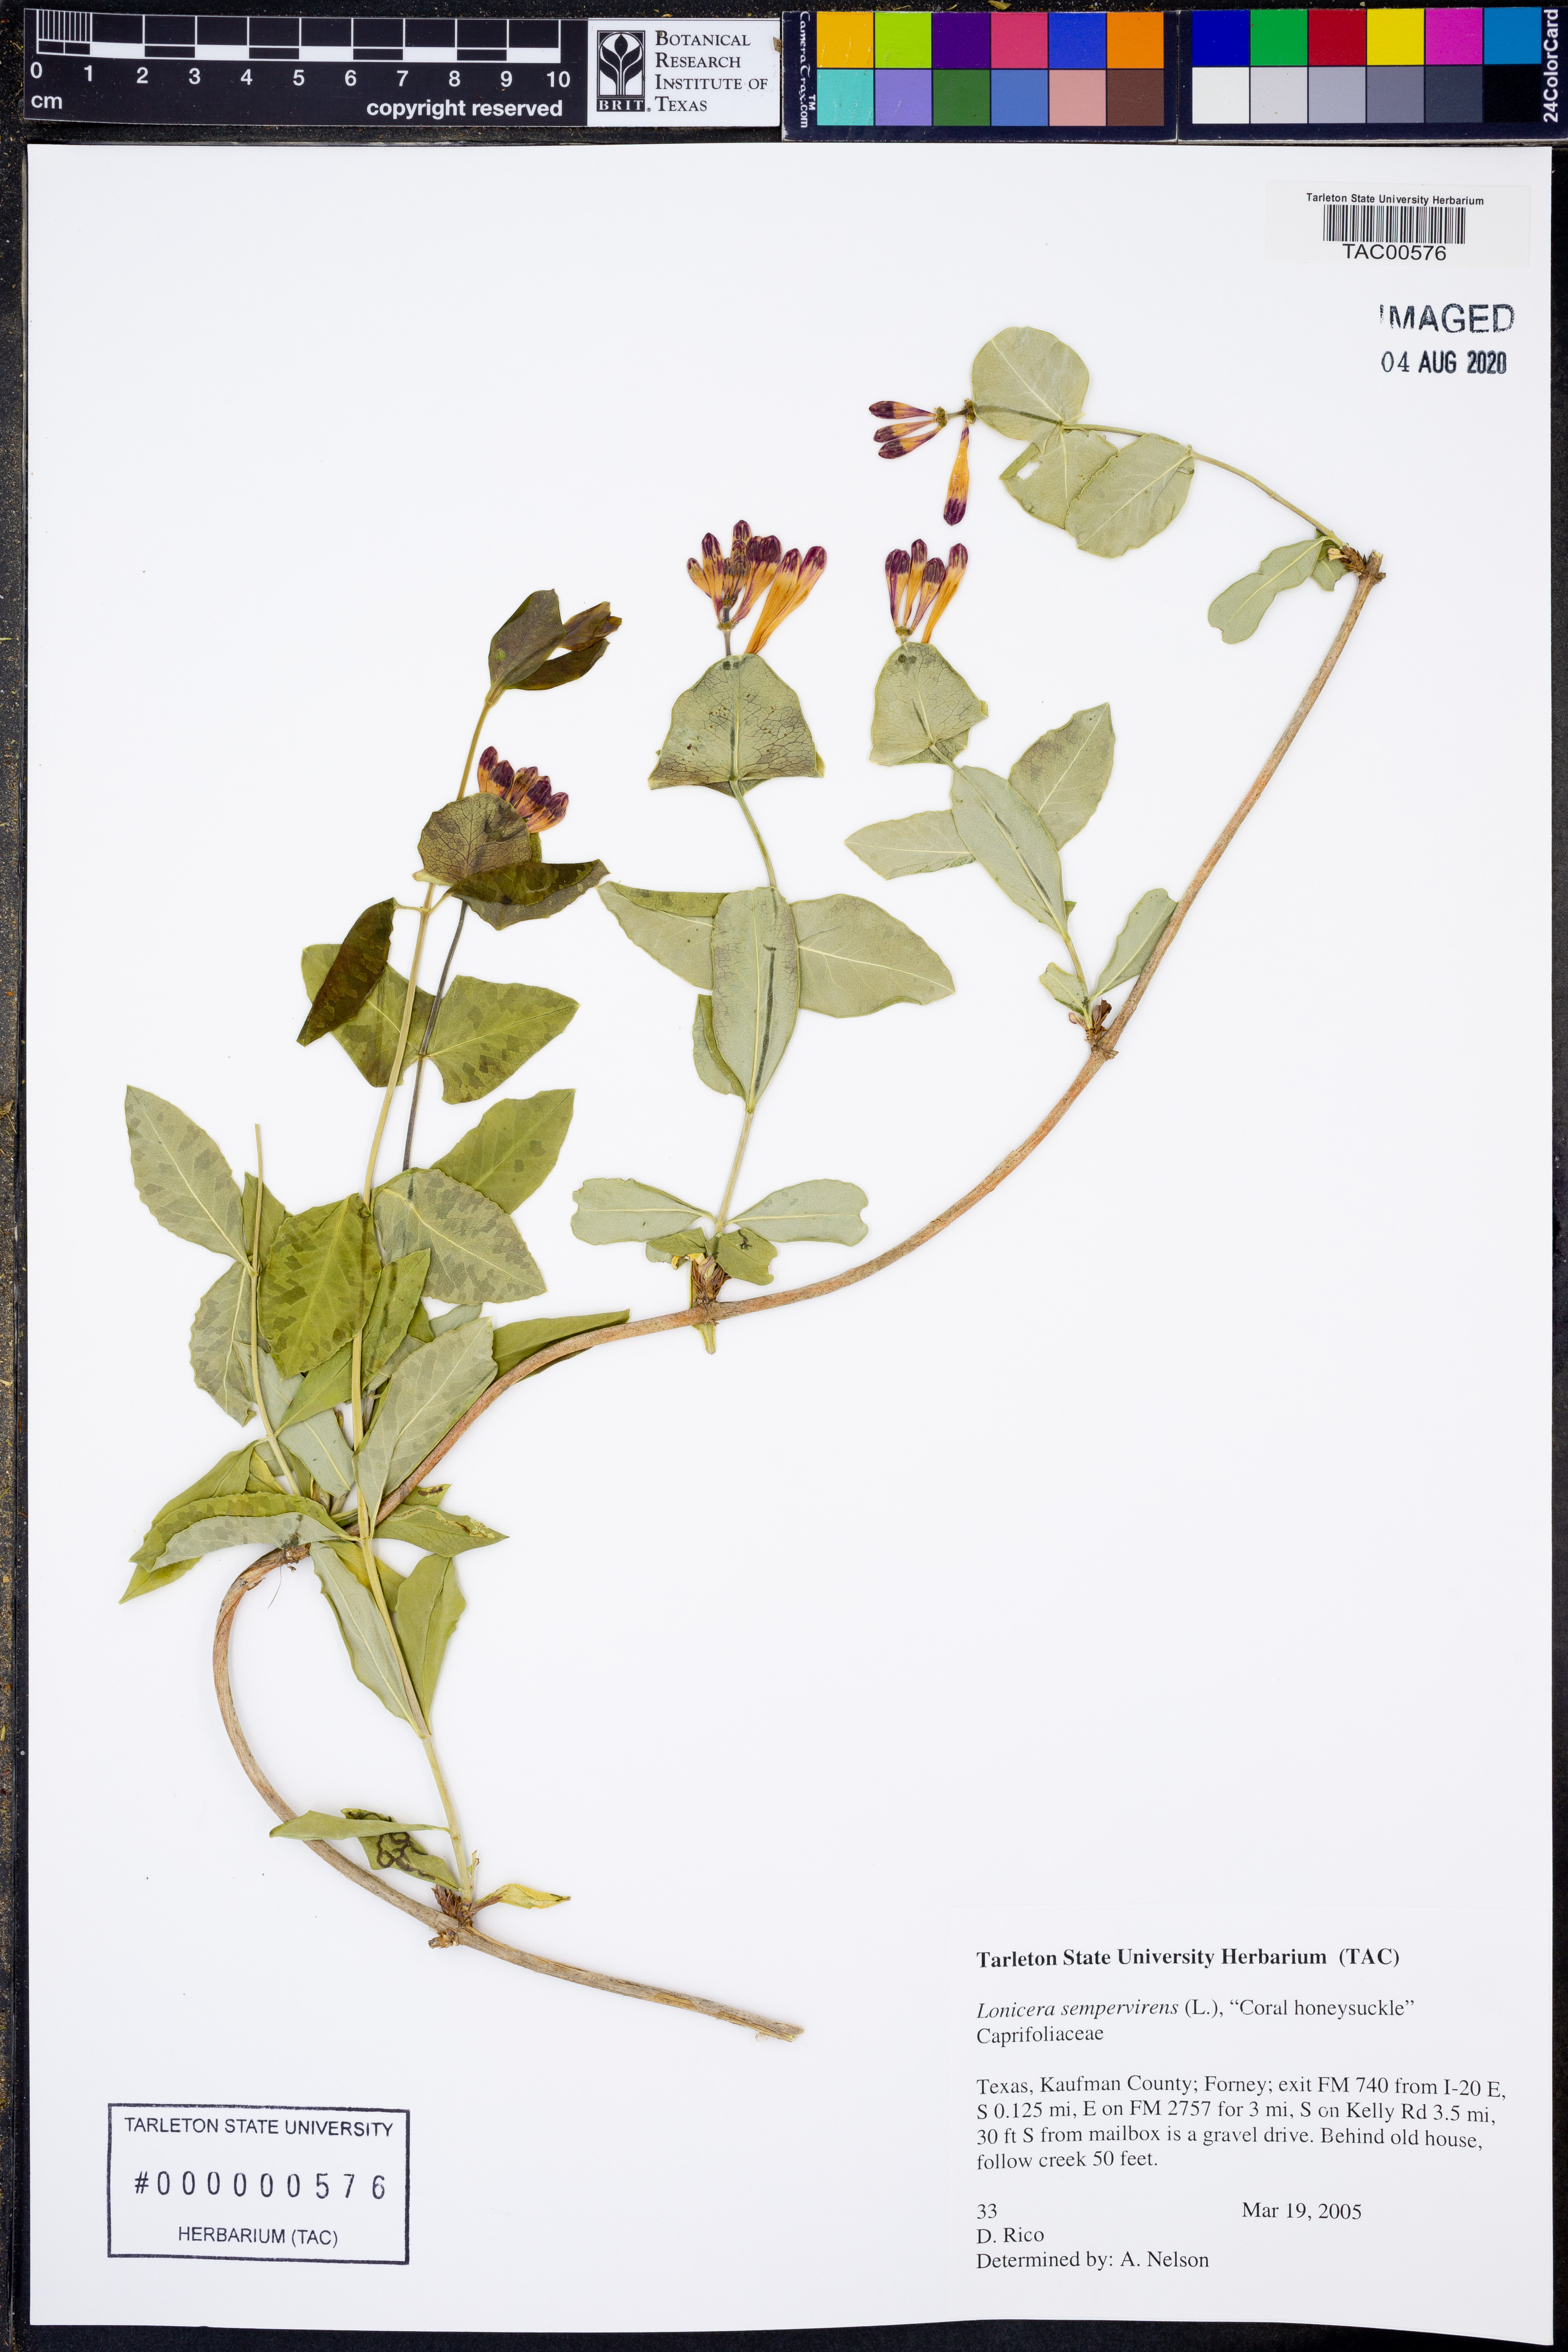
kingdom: Plantae
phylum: Tracheophyta
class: Magnoliopsida
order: Dipsacales
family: Caprifoliaceae
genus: Lonicera
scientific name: Lonicera sempervirens
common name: Coral honeysuckle
